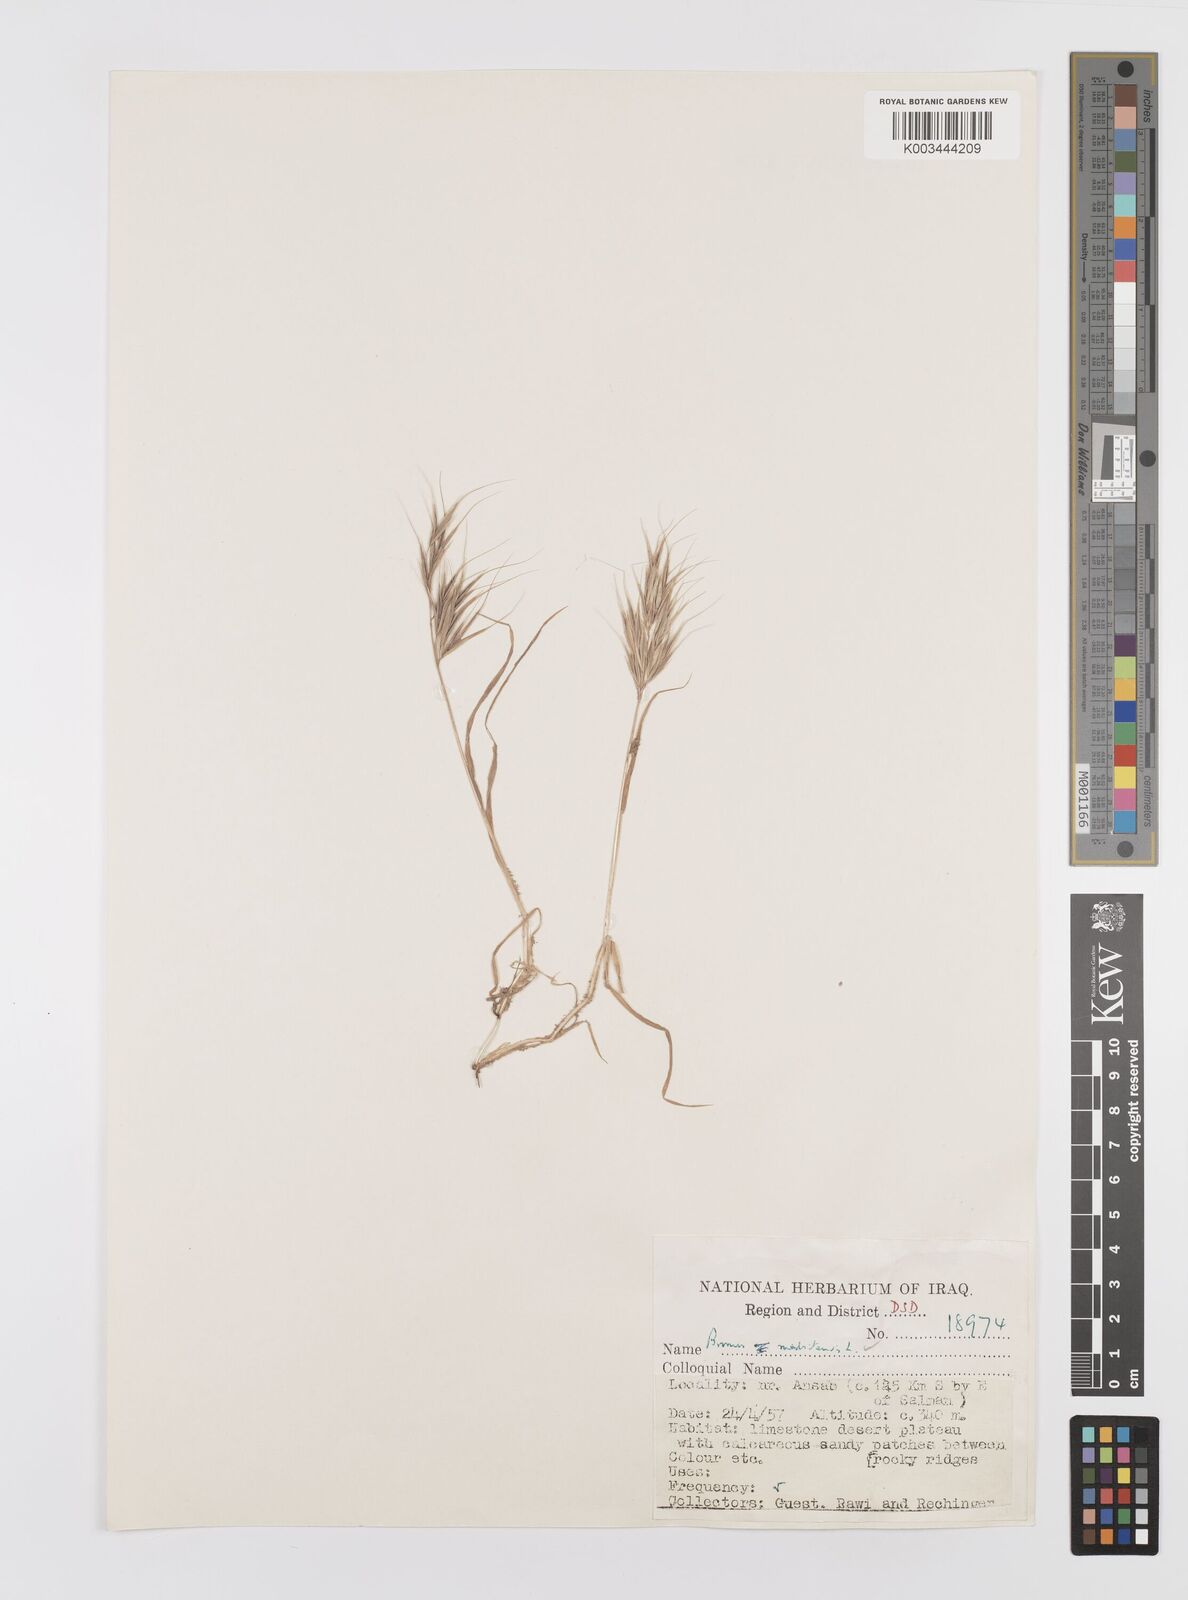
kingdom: Plantae
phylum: Tracheophyta
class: Liliopsida
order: Poales
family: Poaceae
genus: Bromus
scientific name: Bromus madritensis
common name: Compact brome
